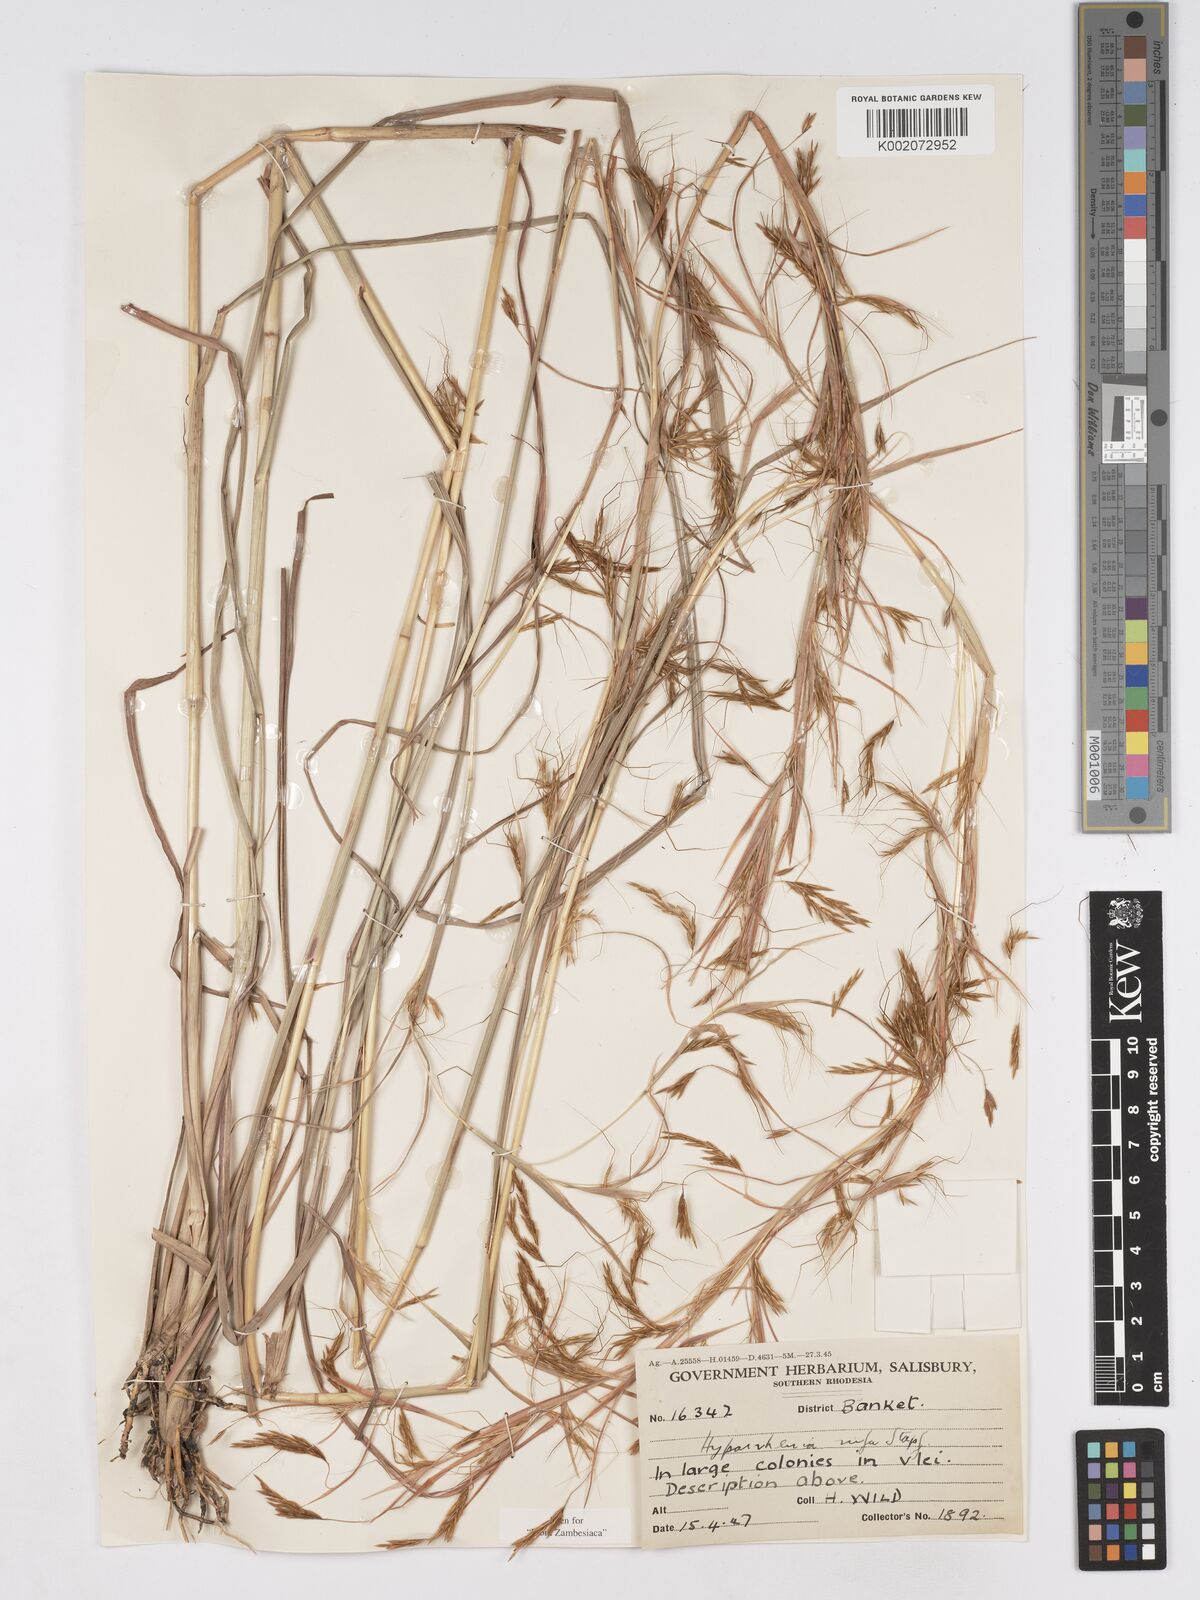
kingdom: Plantae
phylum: Tracheophyta
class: Liliopsida
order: Poales
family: Poaceae
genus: Hyparrhenia
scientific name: Hyparrhenia rufa
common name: Jaraguagrass
